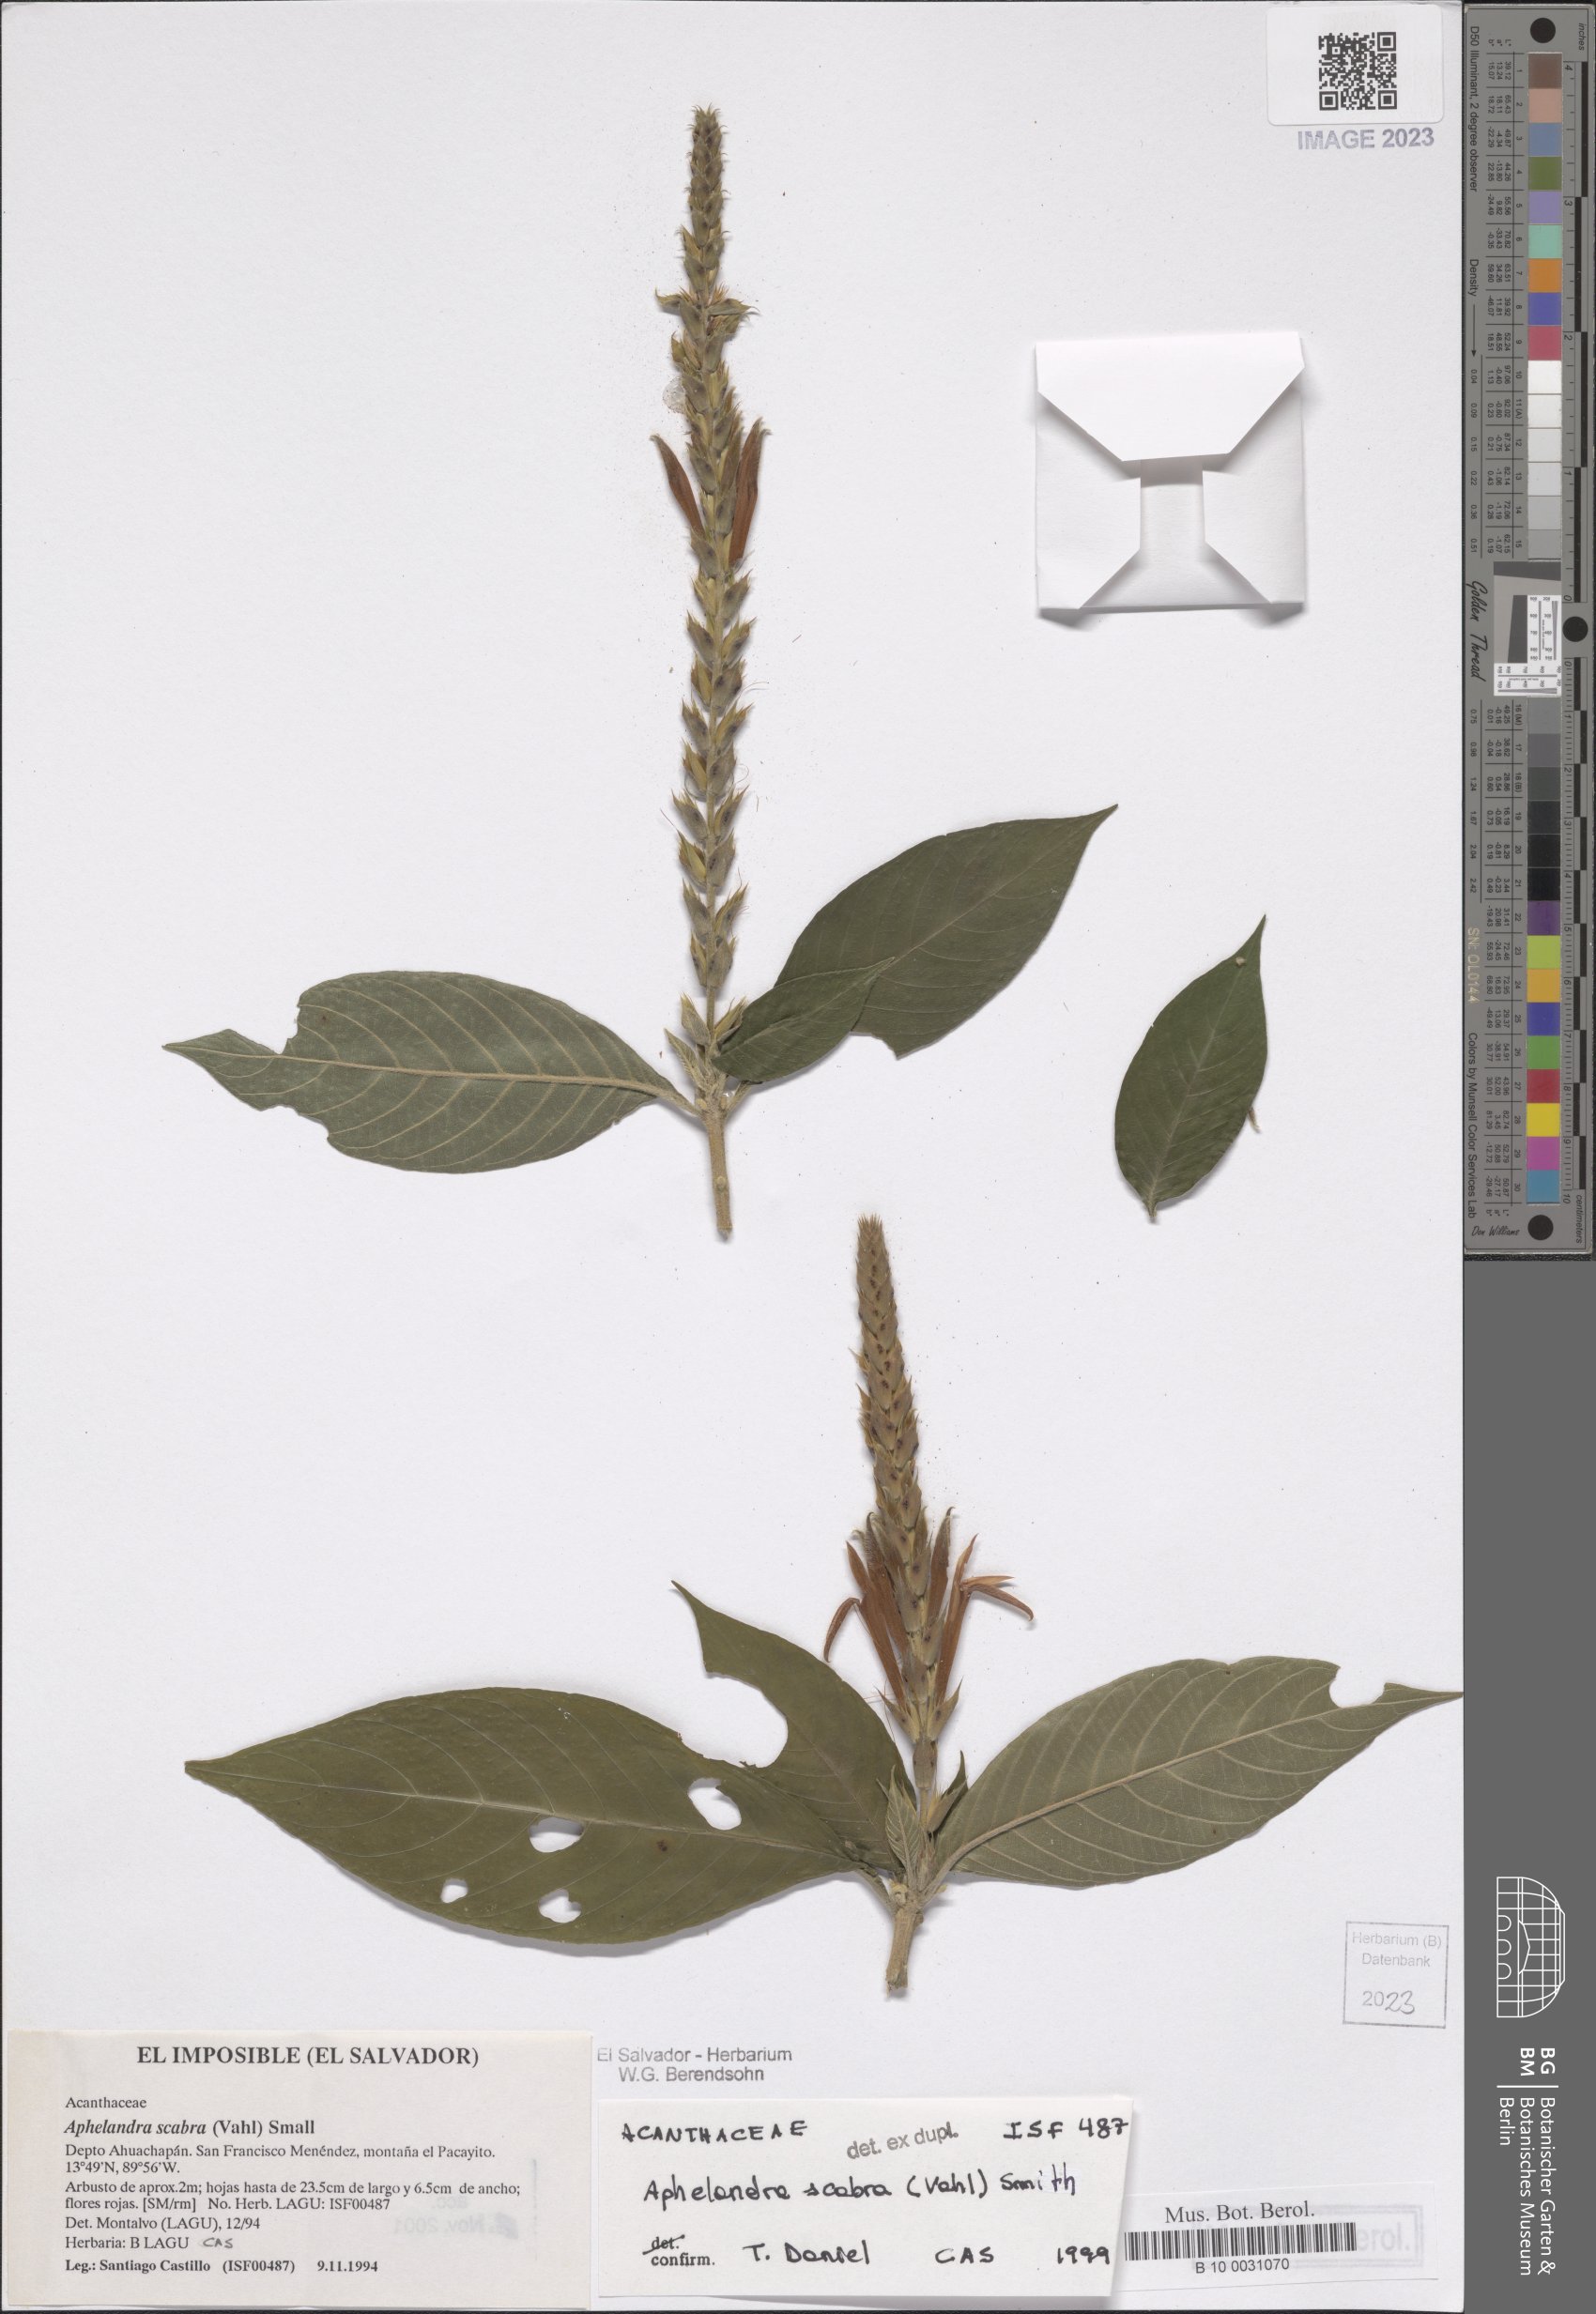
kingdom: Plantae
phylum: Tracheophyta
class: Magnoliopsida
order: Lamiales
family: Acanthaceae
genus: Aphelandra
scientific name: Aphelandra scabra
